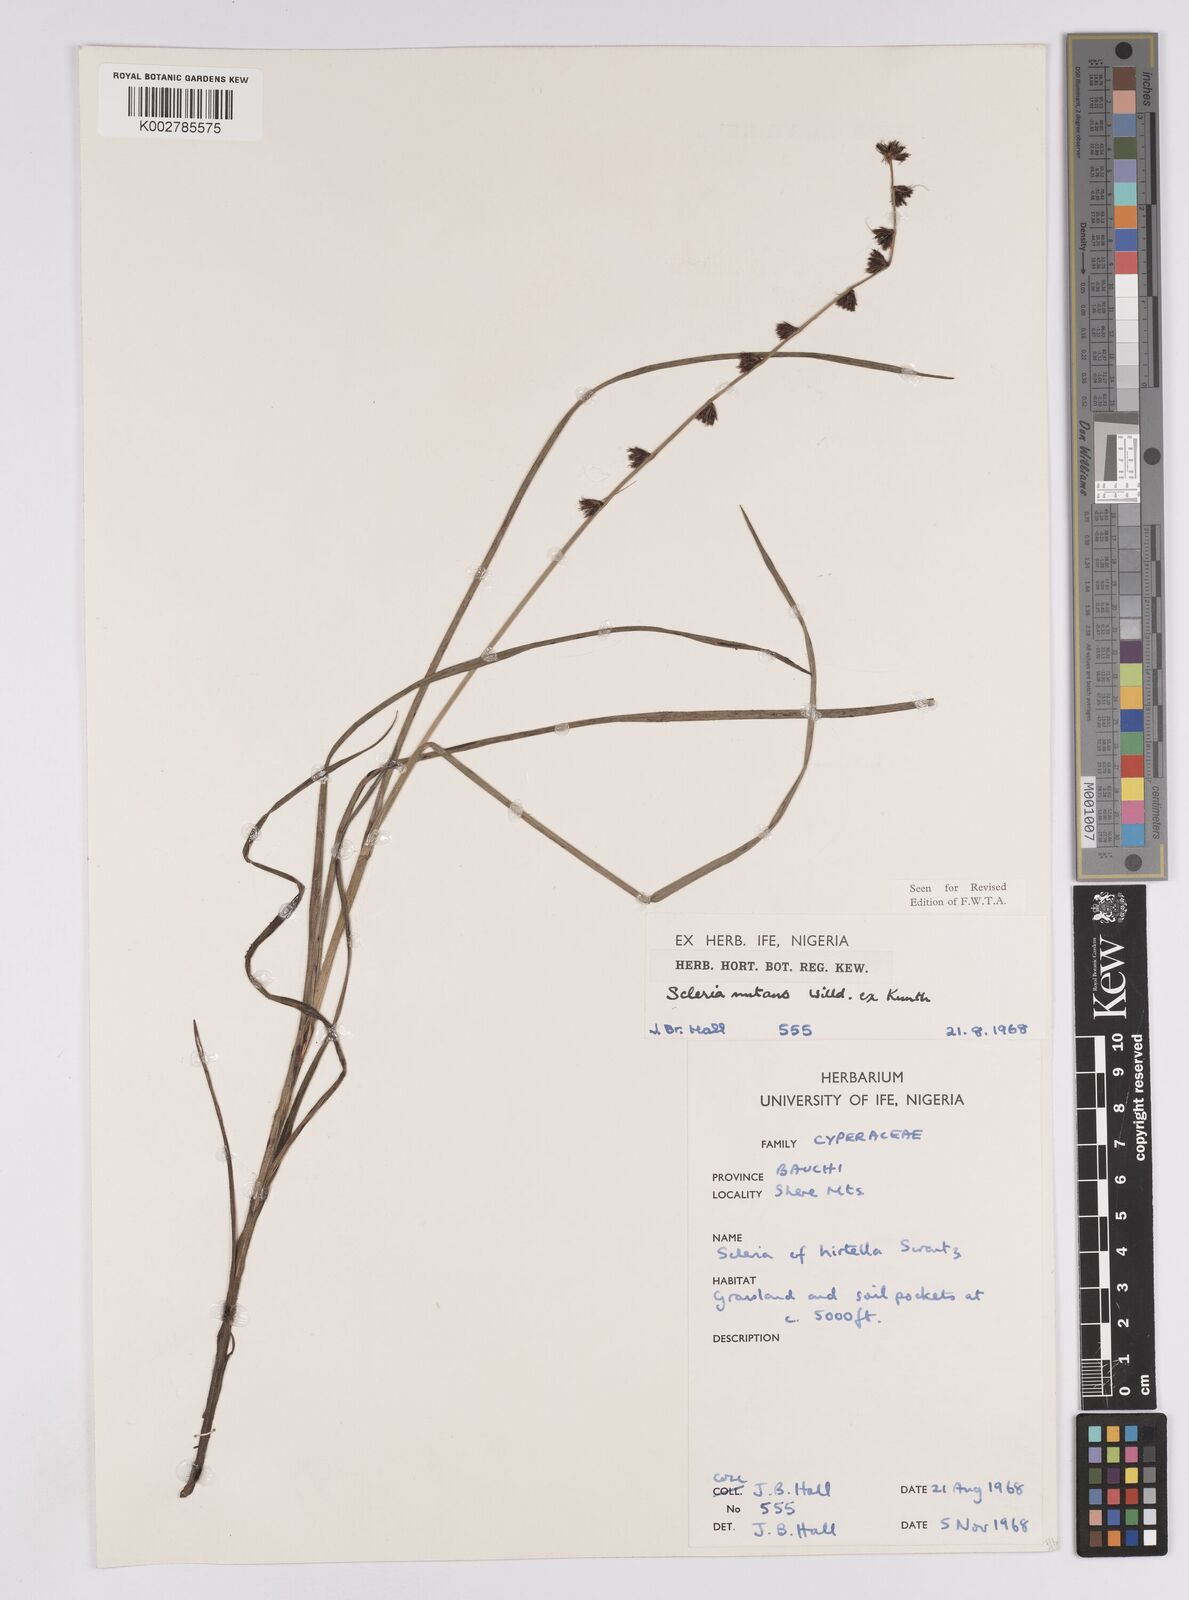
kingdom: Plantae
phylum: Tracheophyta
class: Liliopsida
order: Poales
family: Cyperaceae
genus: Scleria
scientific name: Scleria distans
